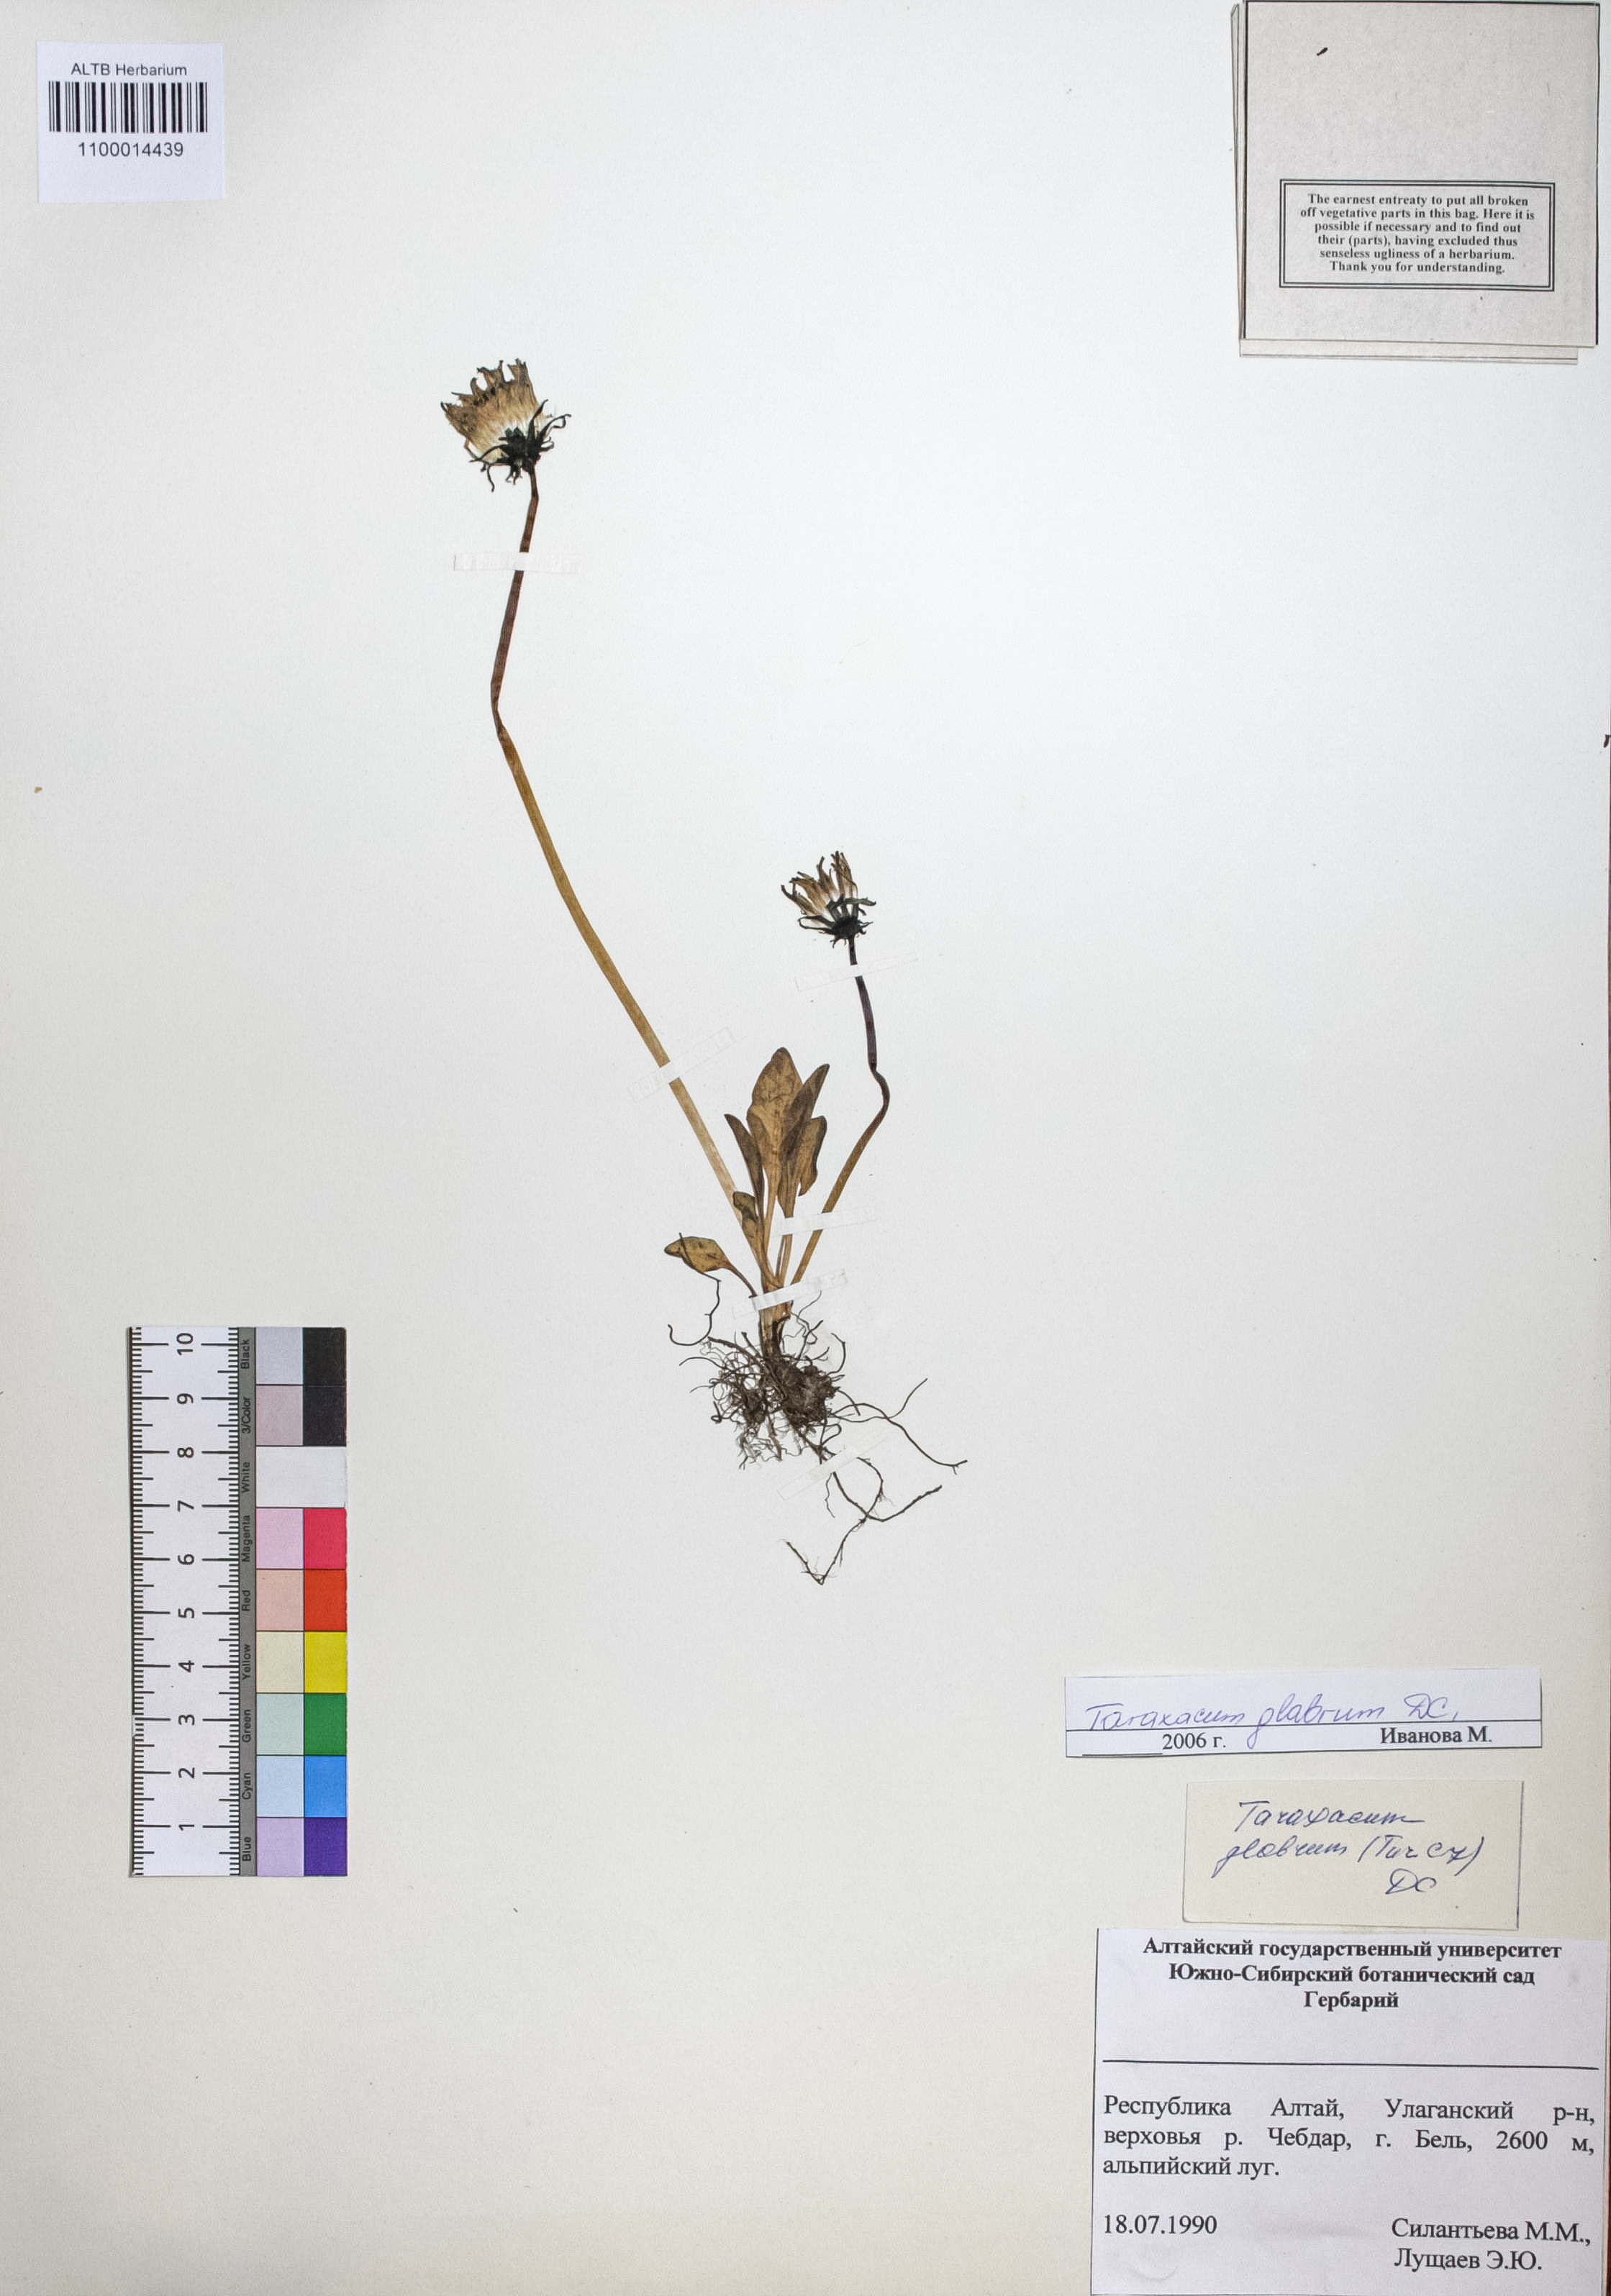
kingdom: Plantae
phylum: Tracheophyta
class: Magnoliopsida
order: Asterales
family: Asteraceae
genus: Taraxacum
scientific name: Taraxacum glabrum
